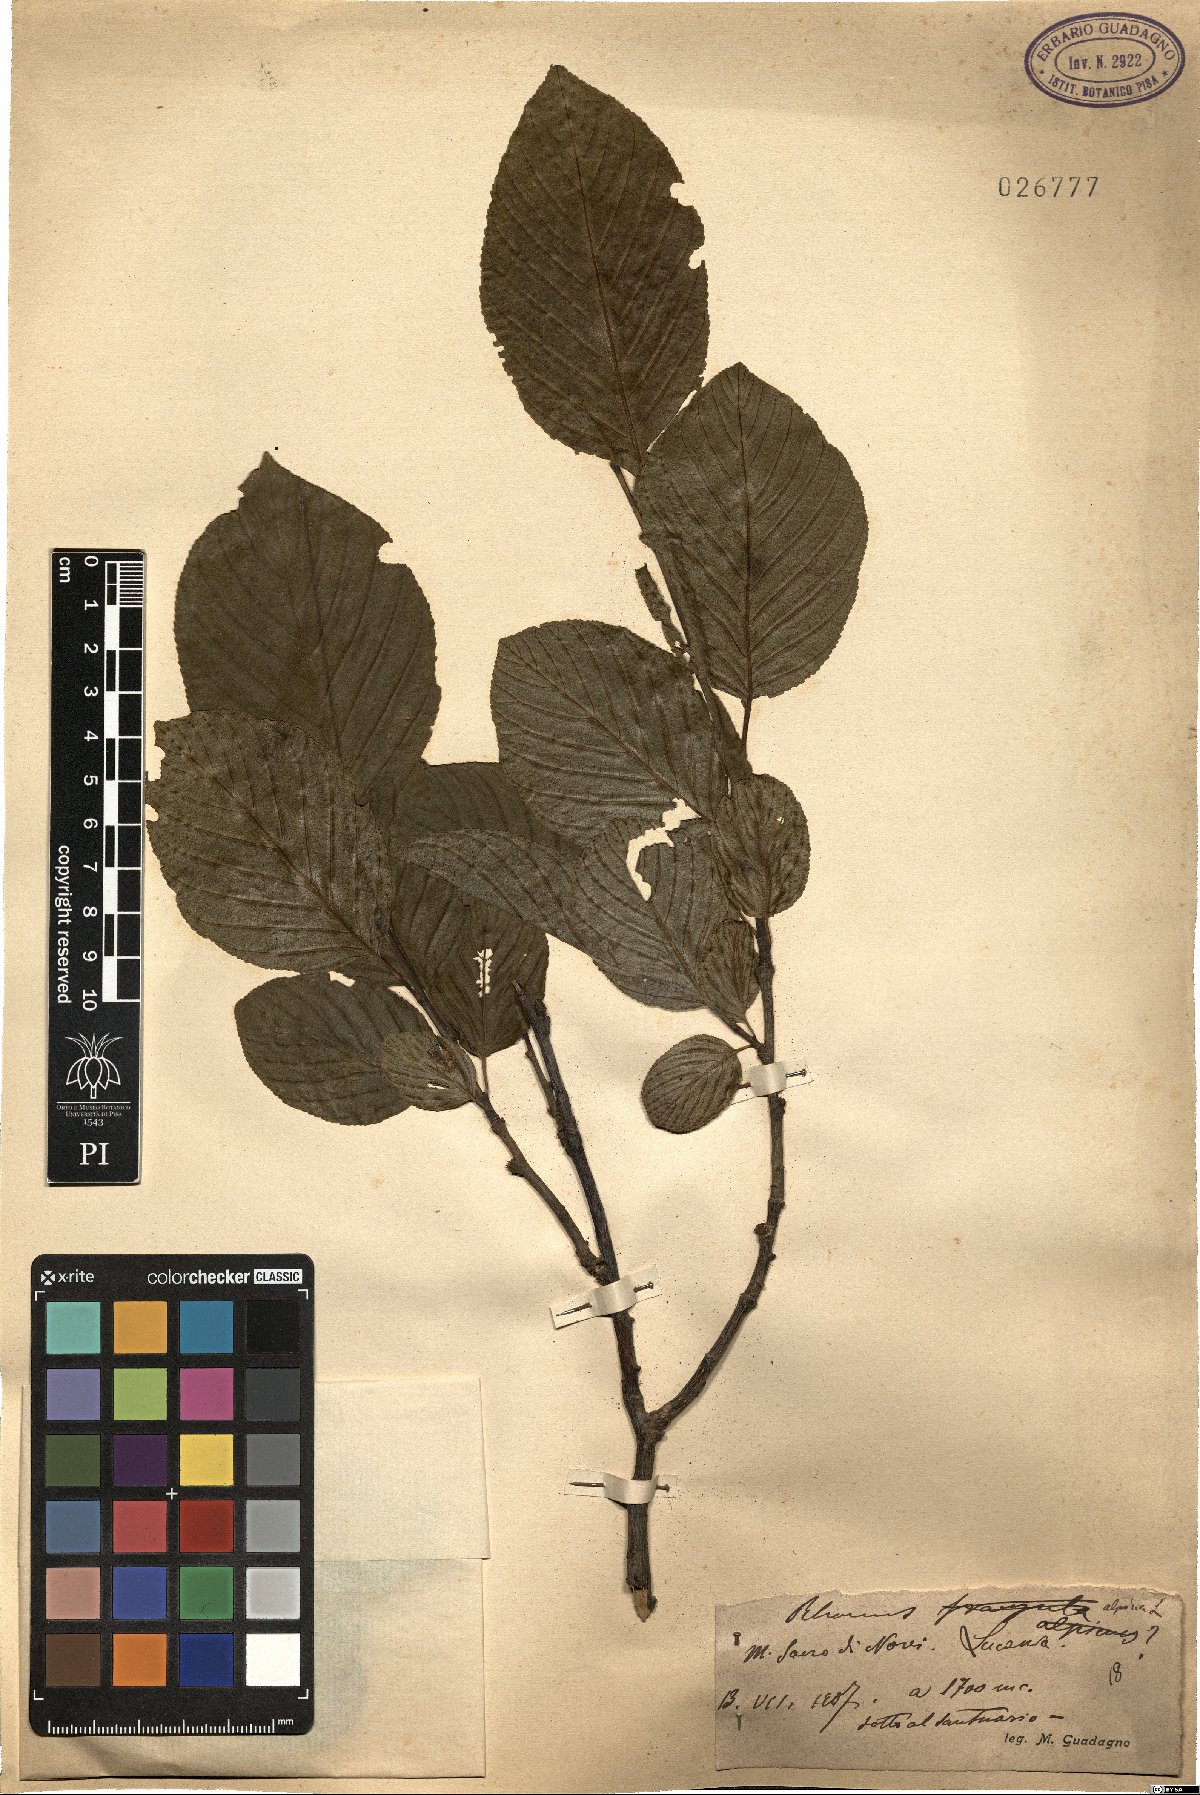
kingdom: Plantae
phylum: Tracheophyta
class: Magnoliopsida
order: Rosales
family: Rhamnaceae
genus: Atadinus
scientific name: Atadinus alpinus
